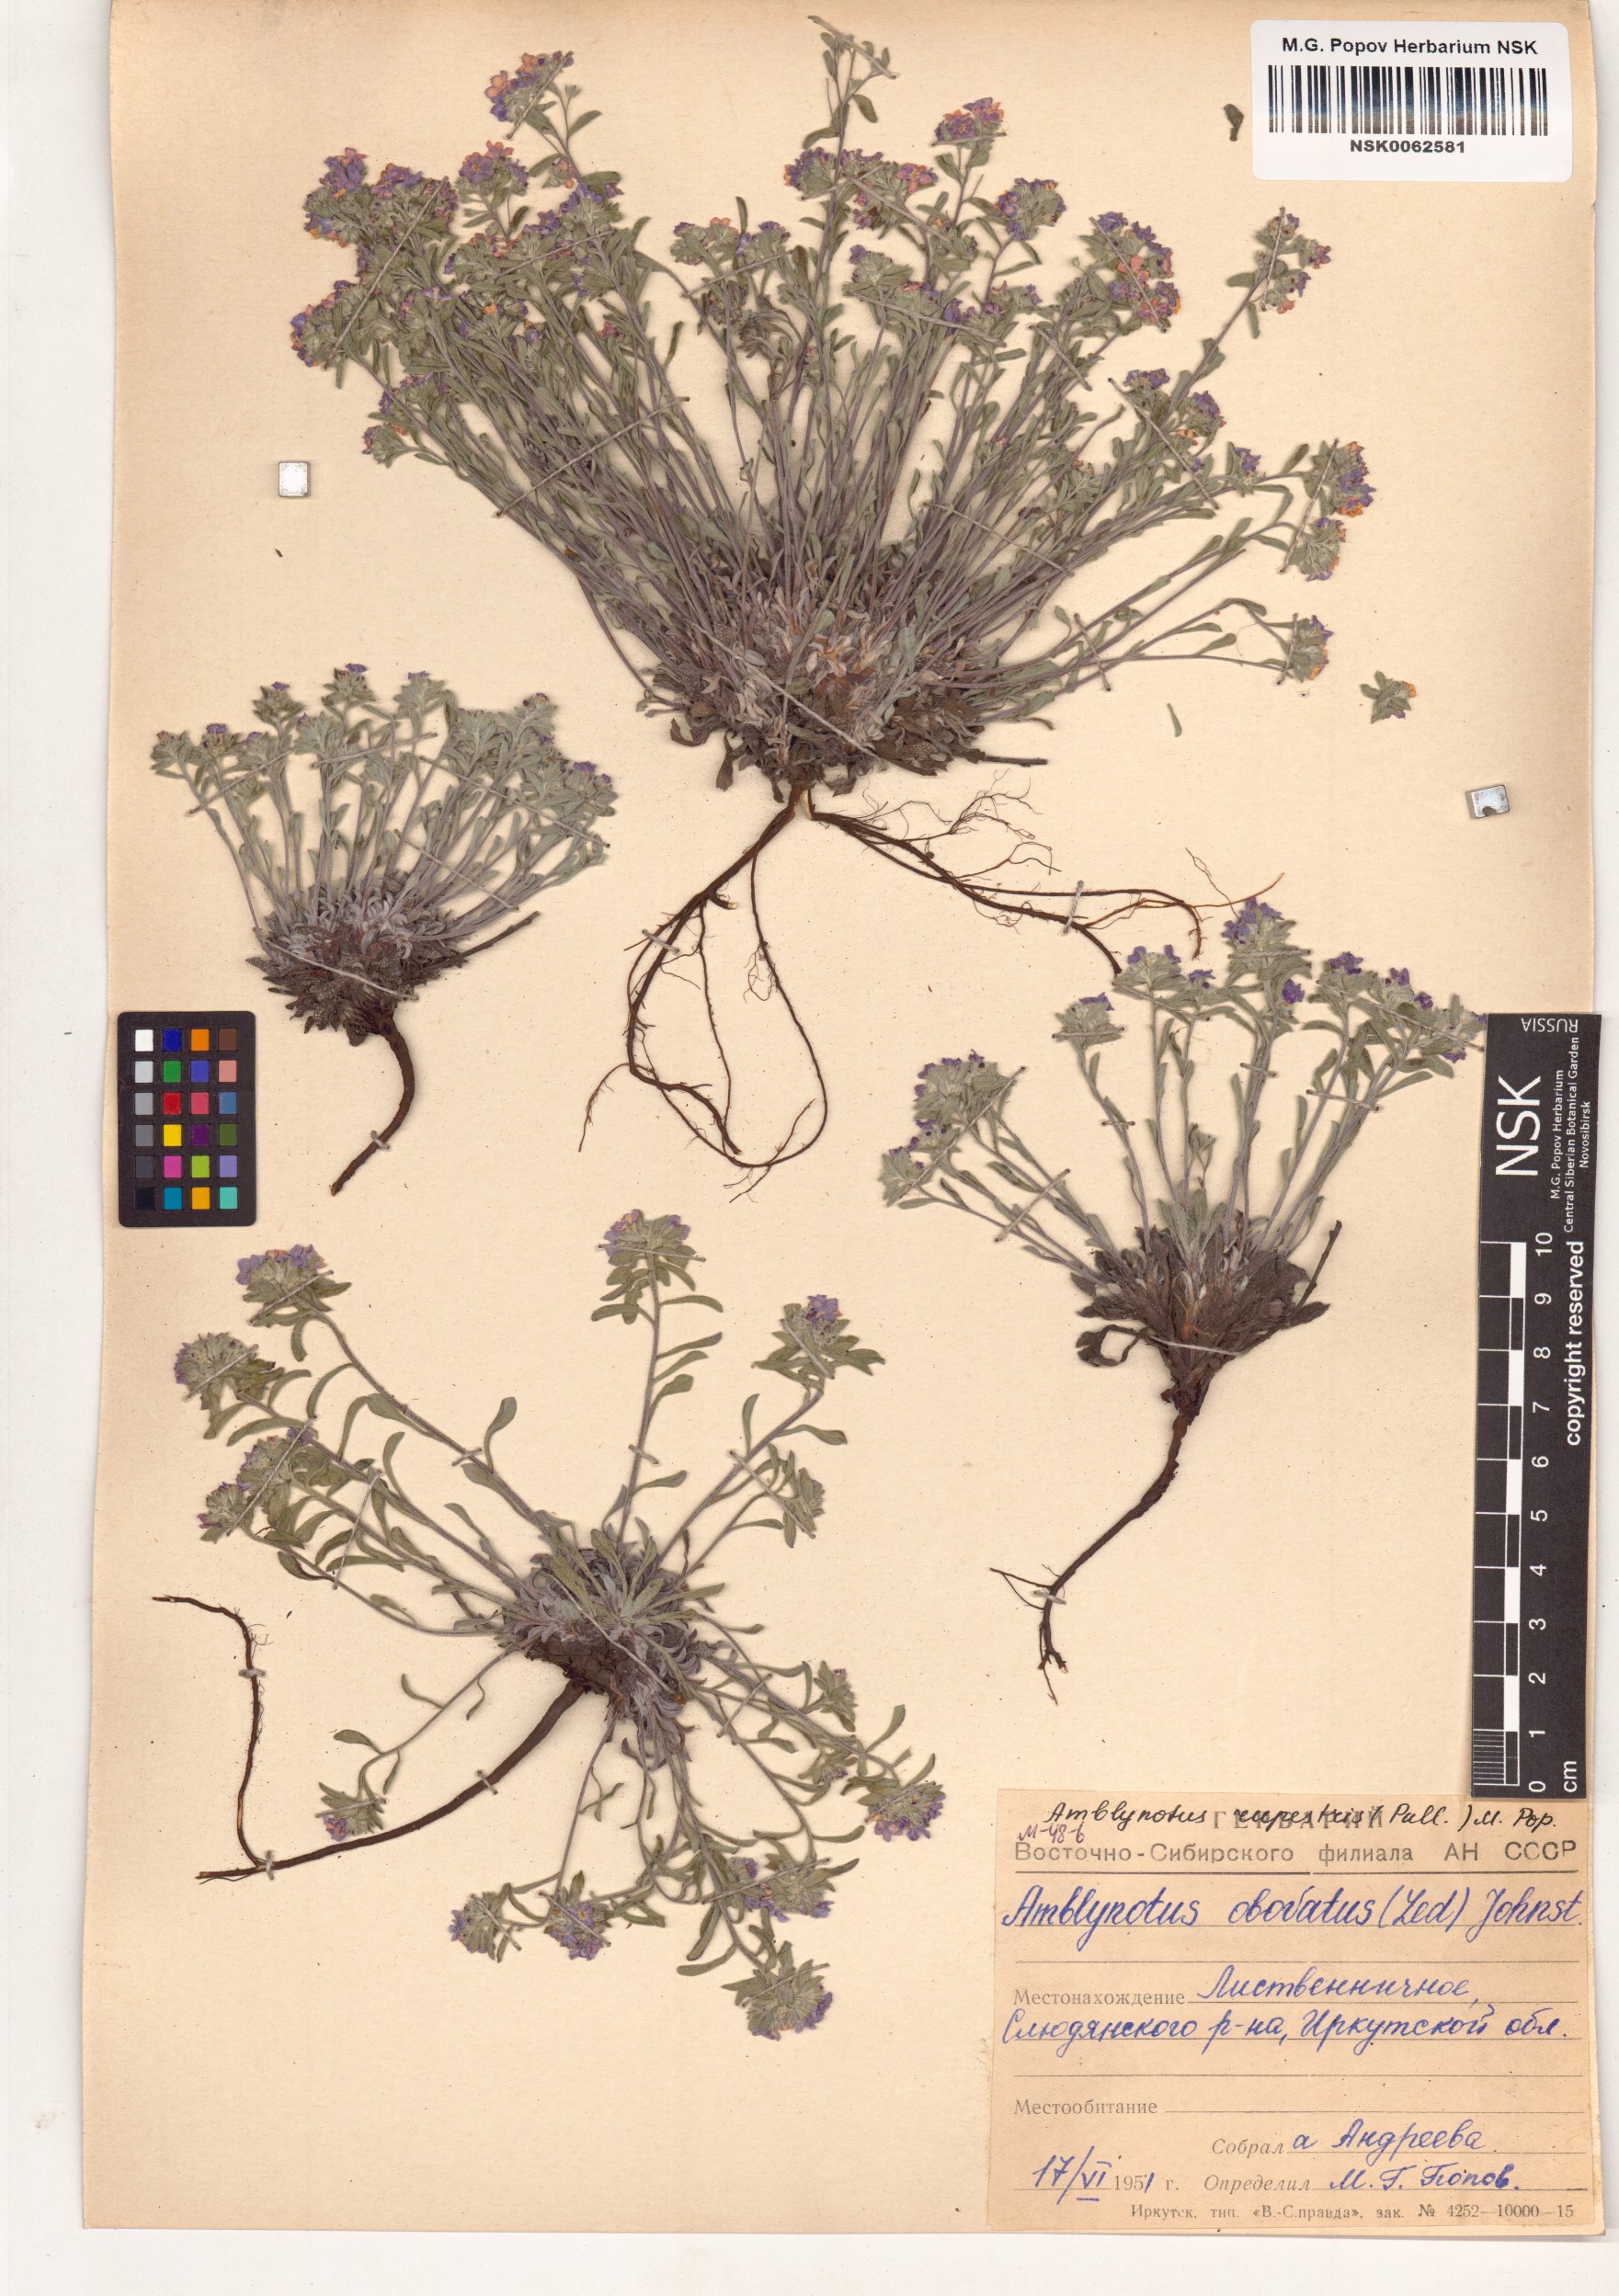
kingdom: Plantae
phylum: Tracheophyta
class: Magnoliopsida
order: Boraginales
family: Boraginaceae
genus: Eritrichium
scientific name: Eritrichium rupestre
